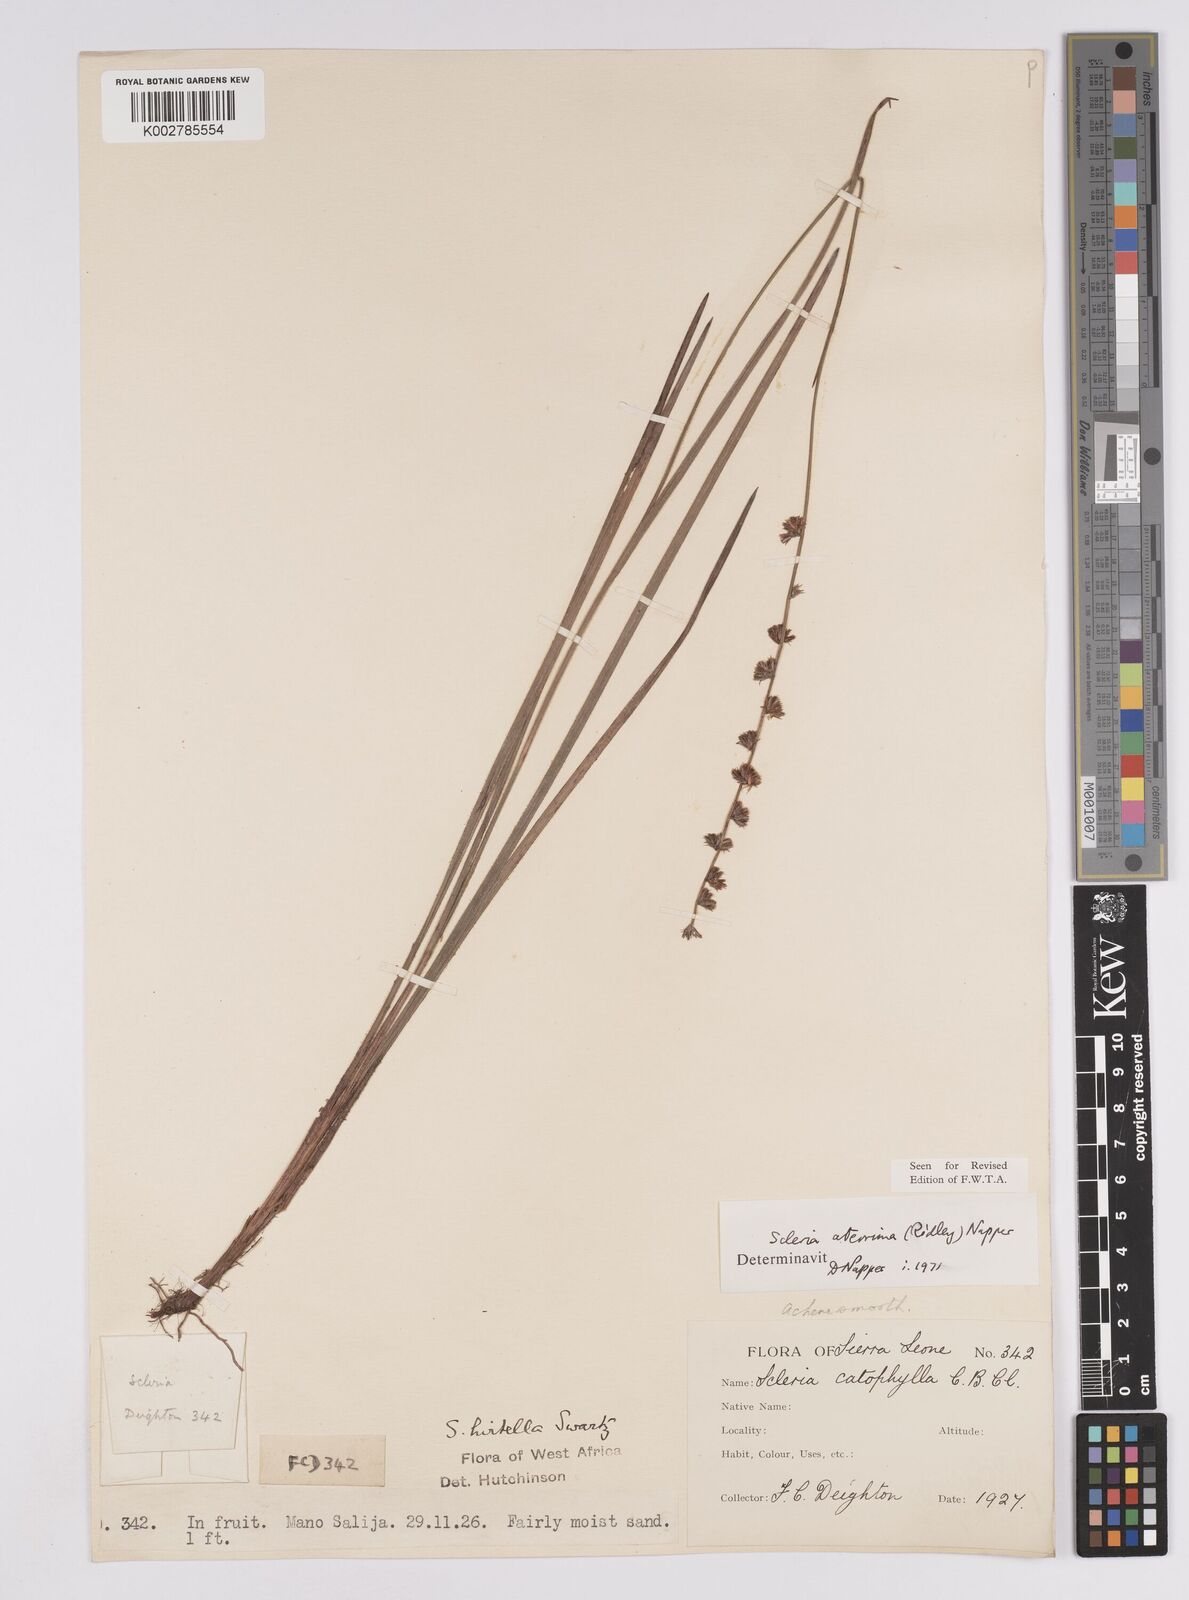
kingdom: Plantae
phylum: Tracheophyta
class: Liliopsida
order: Poales
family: Cyperaceae
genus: Scleria
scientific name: Scleria catophylla
